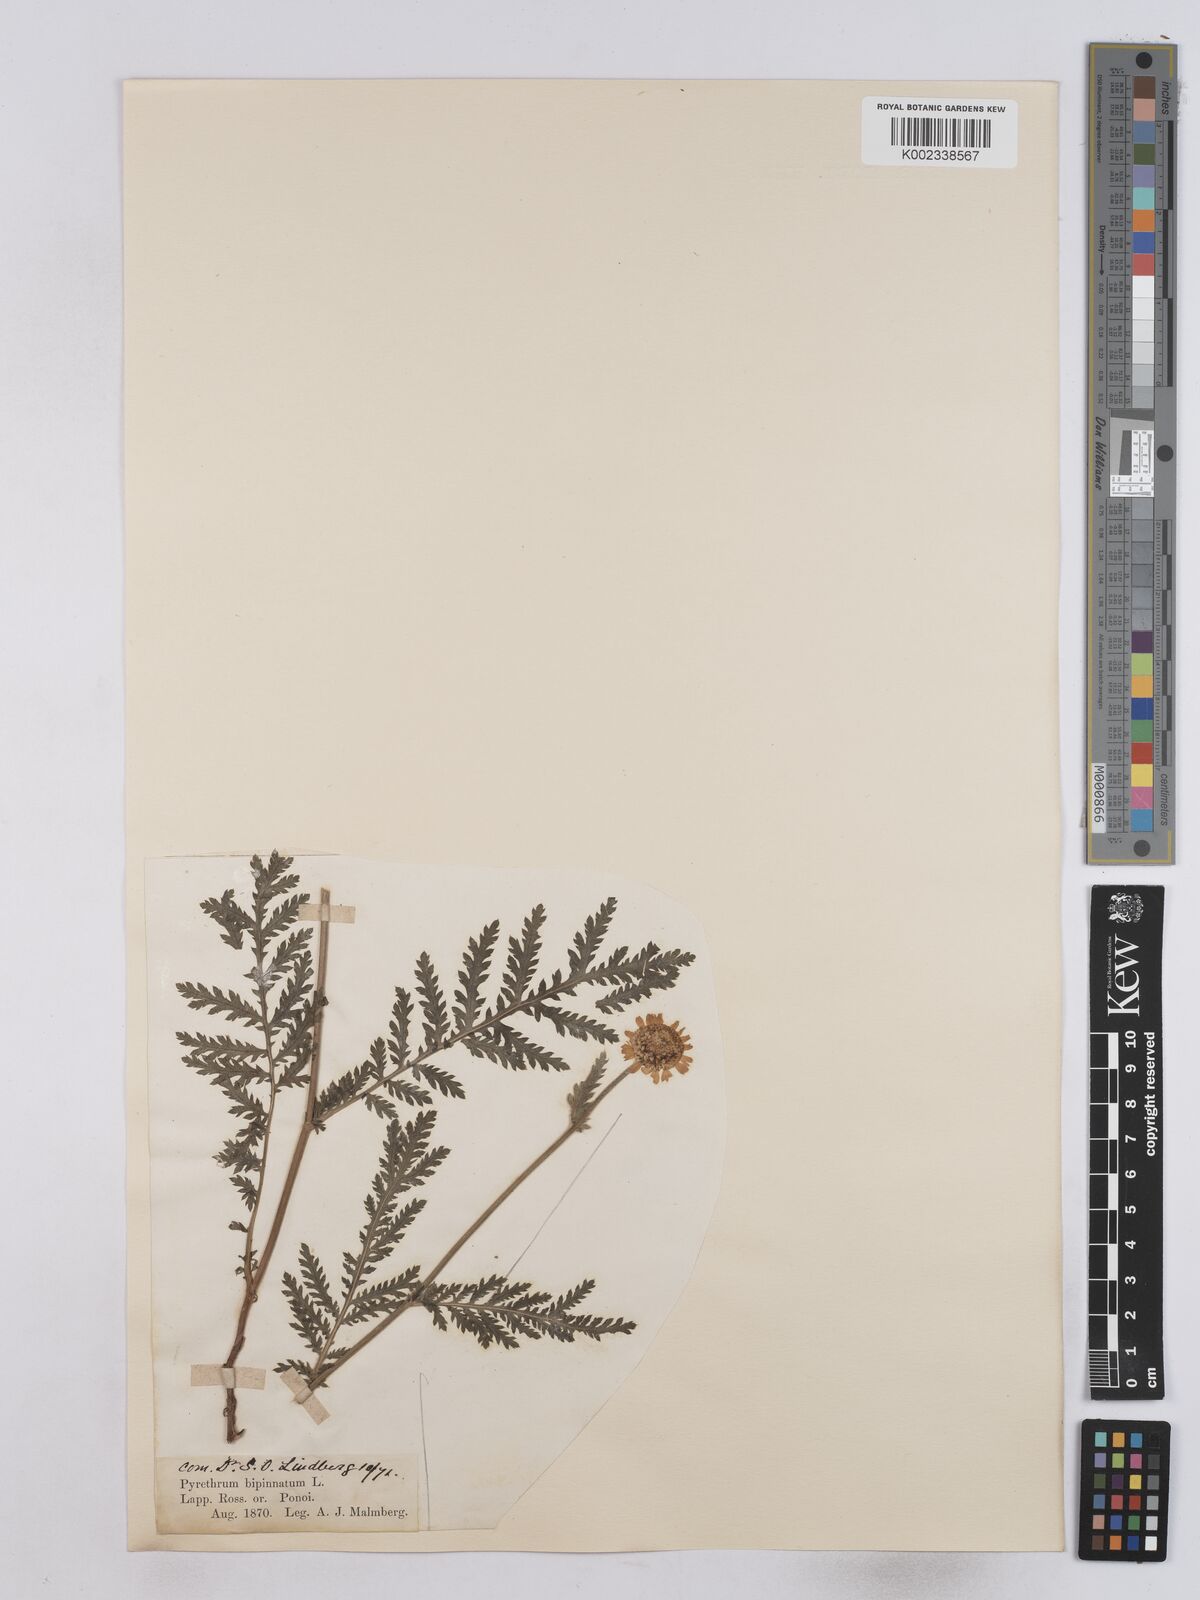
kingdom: Plantae
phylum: Tracheophyta
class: Magnoliopsida
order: Asterales
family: Asteraceae
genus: Tanacetum
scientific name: Tanacetum
